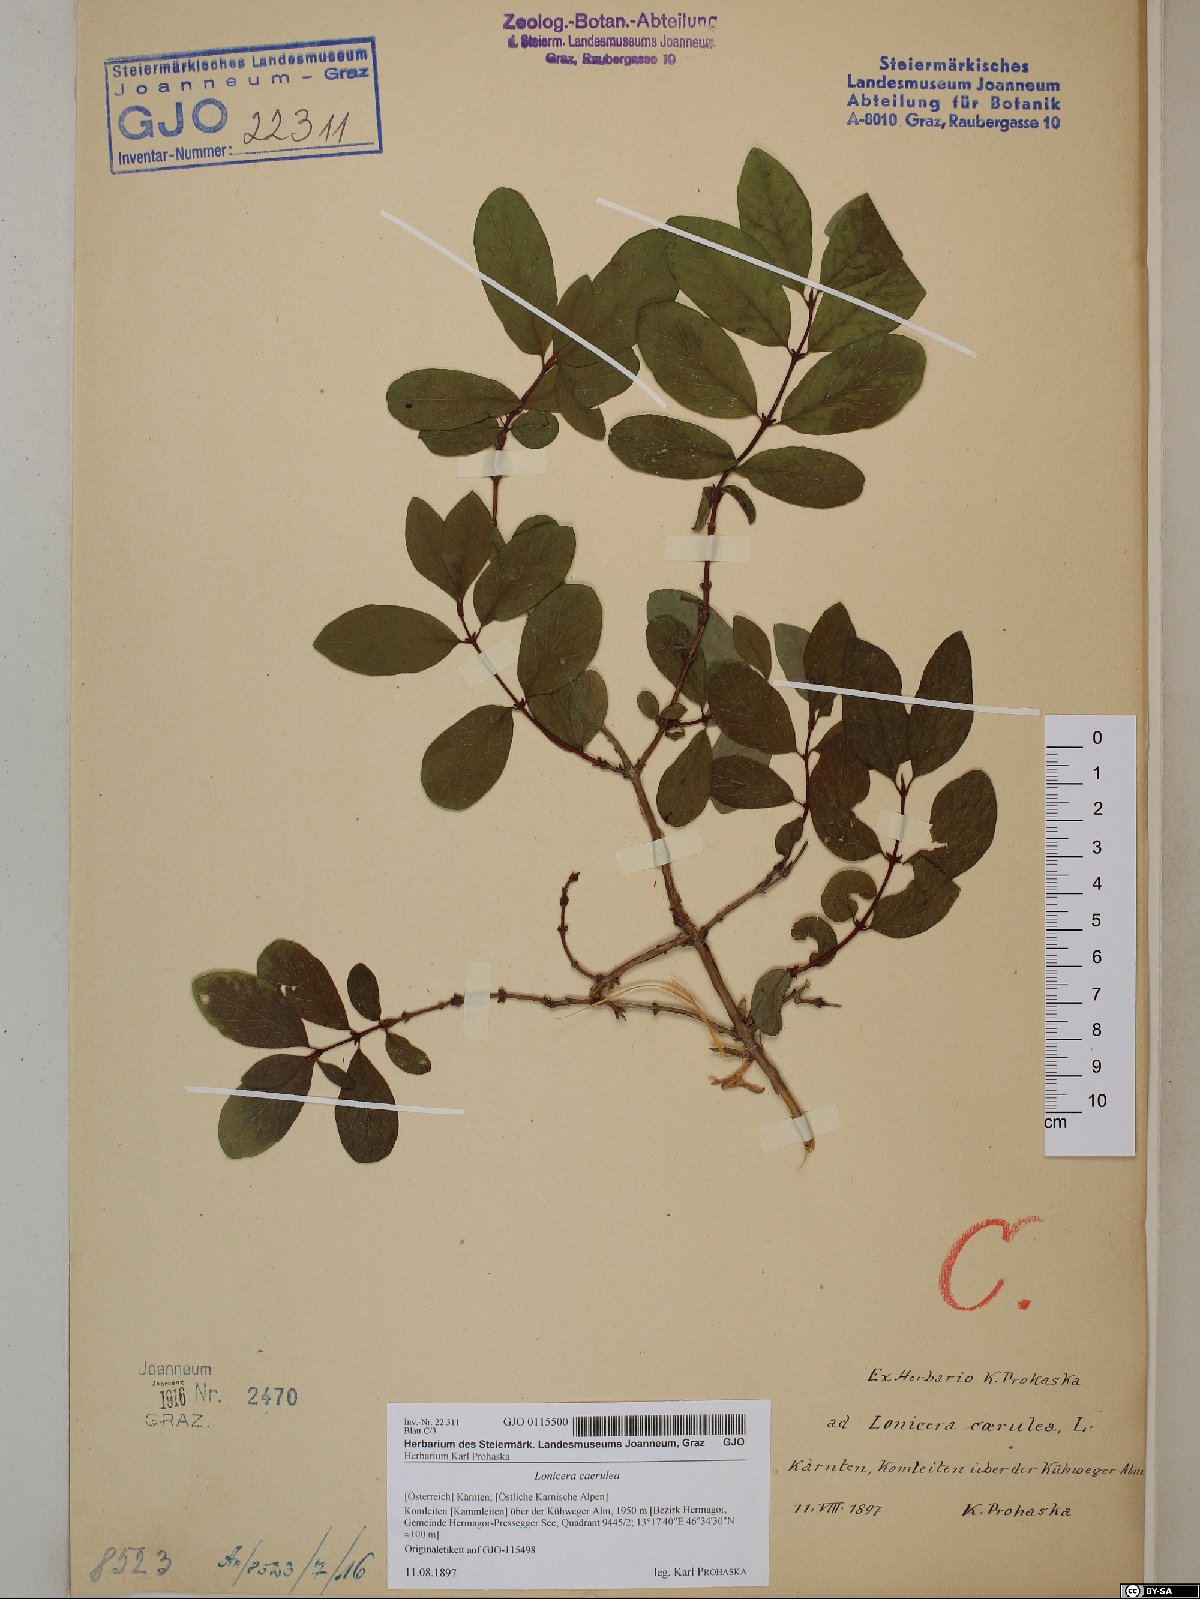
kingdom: Plantae
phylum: Tracheophyta
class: Magnoliopsida
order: Dipsacales
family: Caprifoliaceae
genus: Lonicera
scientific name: Lonicera caerulea
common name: Blue honeysuckle
